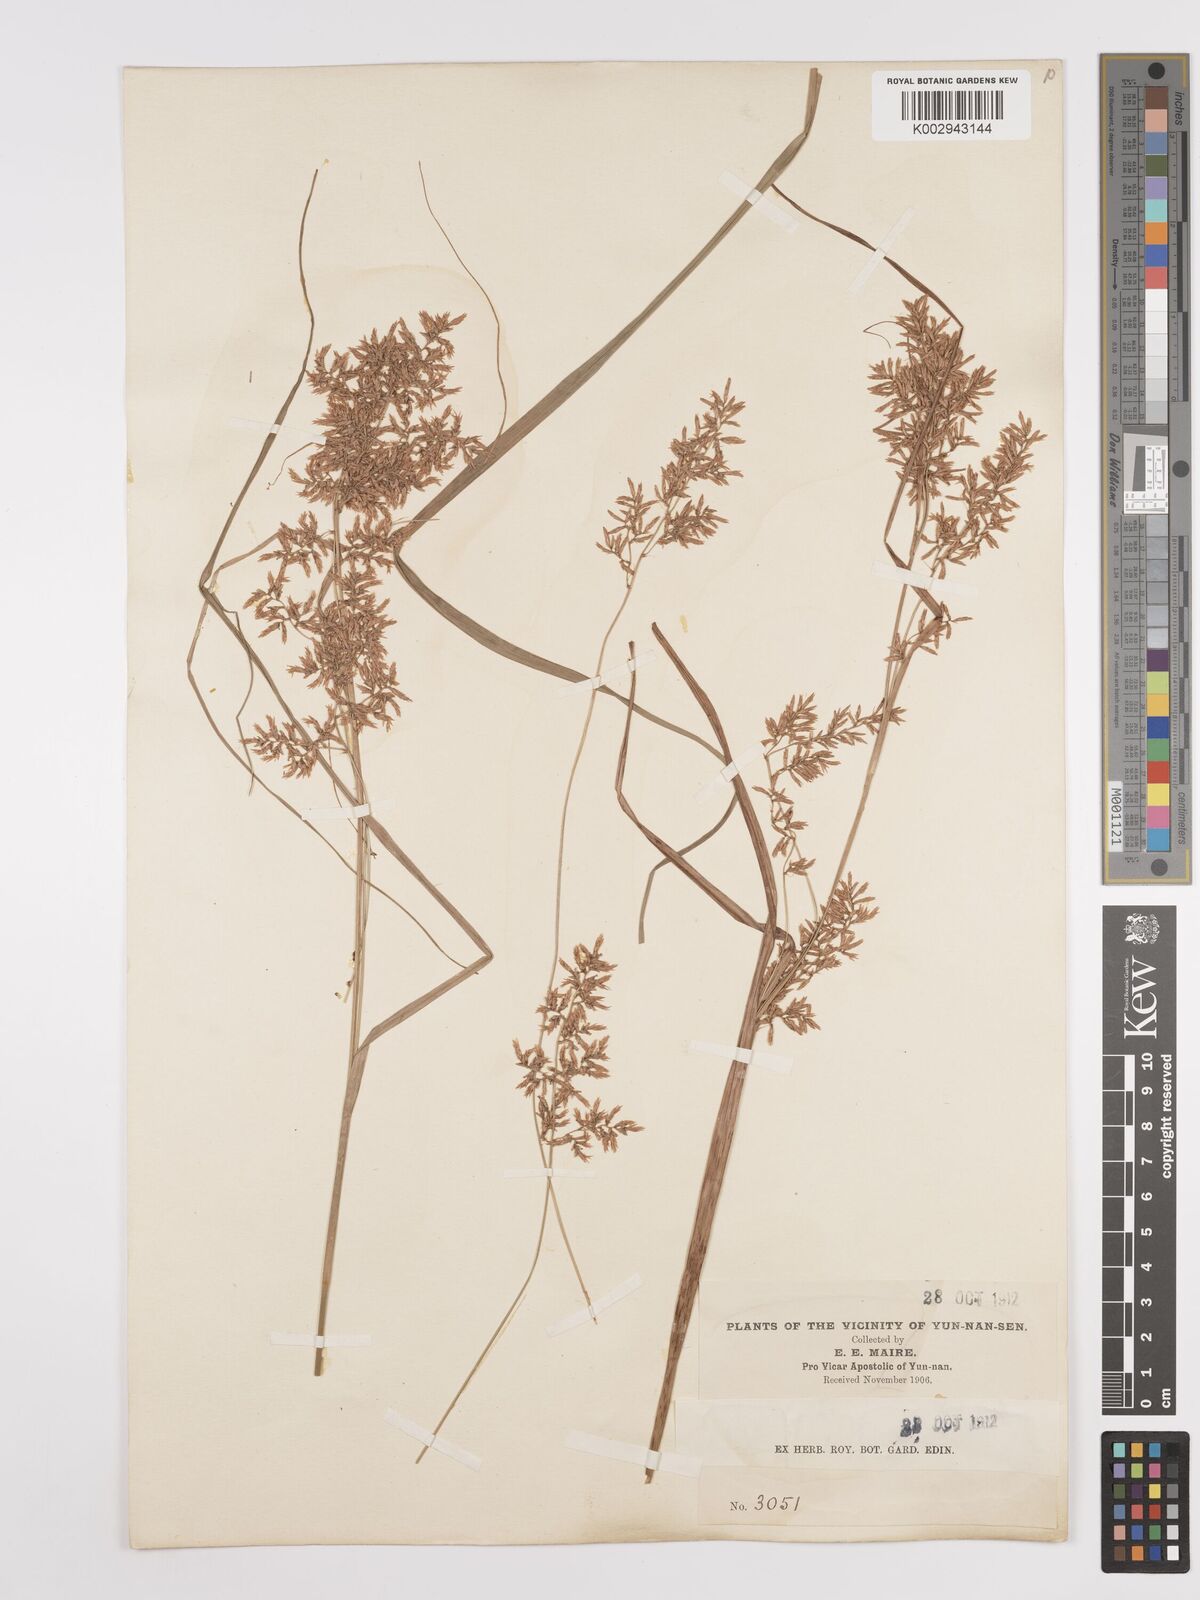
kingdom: Plantae
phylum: Tracheophyta
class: Liliopsida
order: Poales
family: Cyperaceae
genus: Carex
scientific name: Carex
